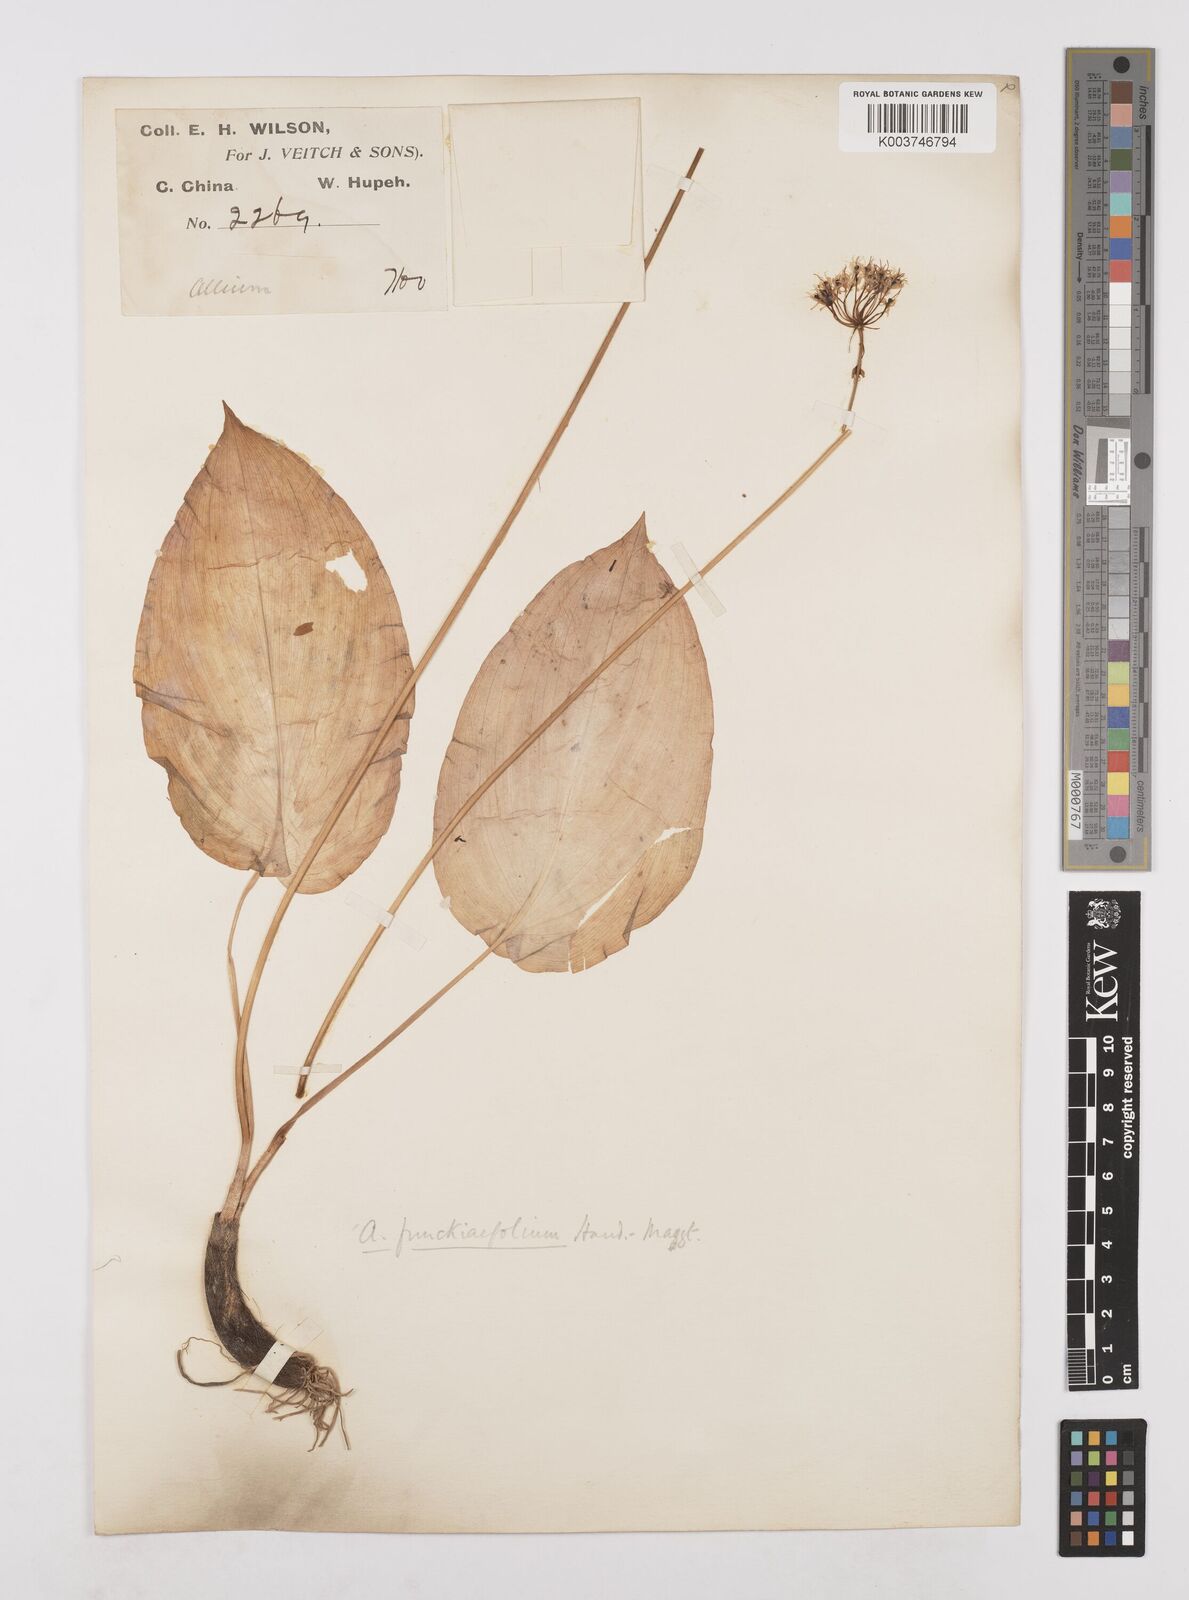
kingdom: Plantae
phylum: Tracheophyta
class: Liliopsida
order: Asparagales
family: Amaryllidaceae
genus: Allium
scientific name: Allium funckiifolium
